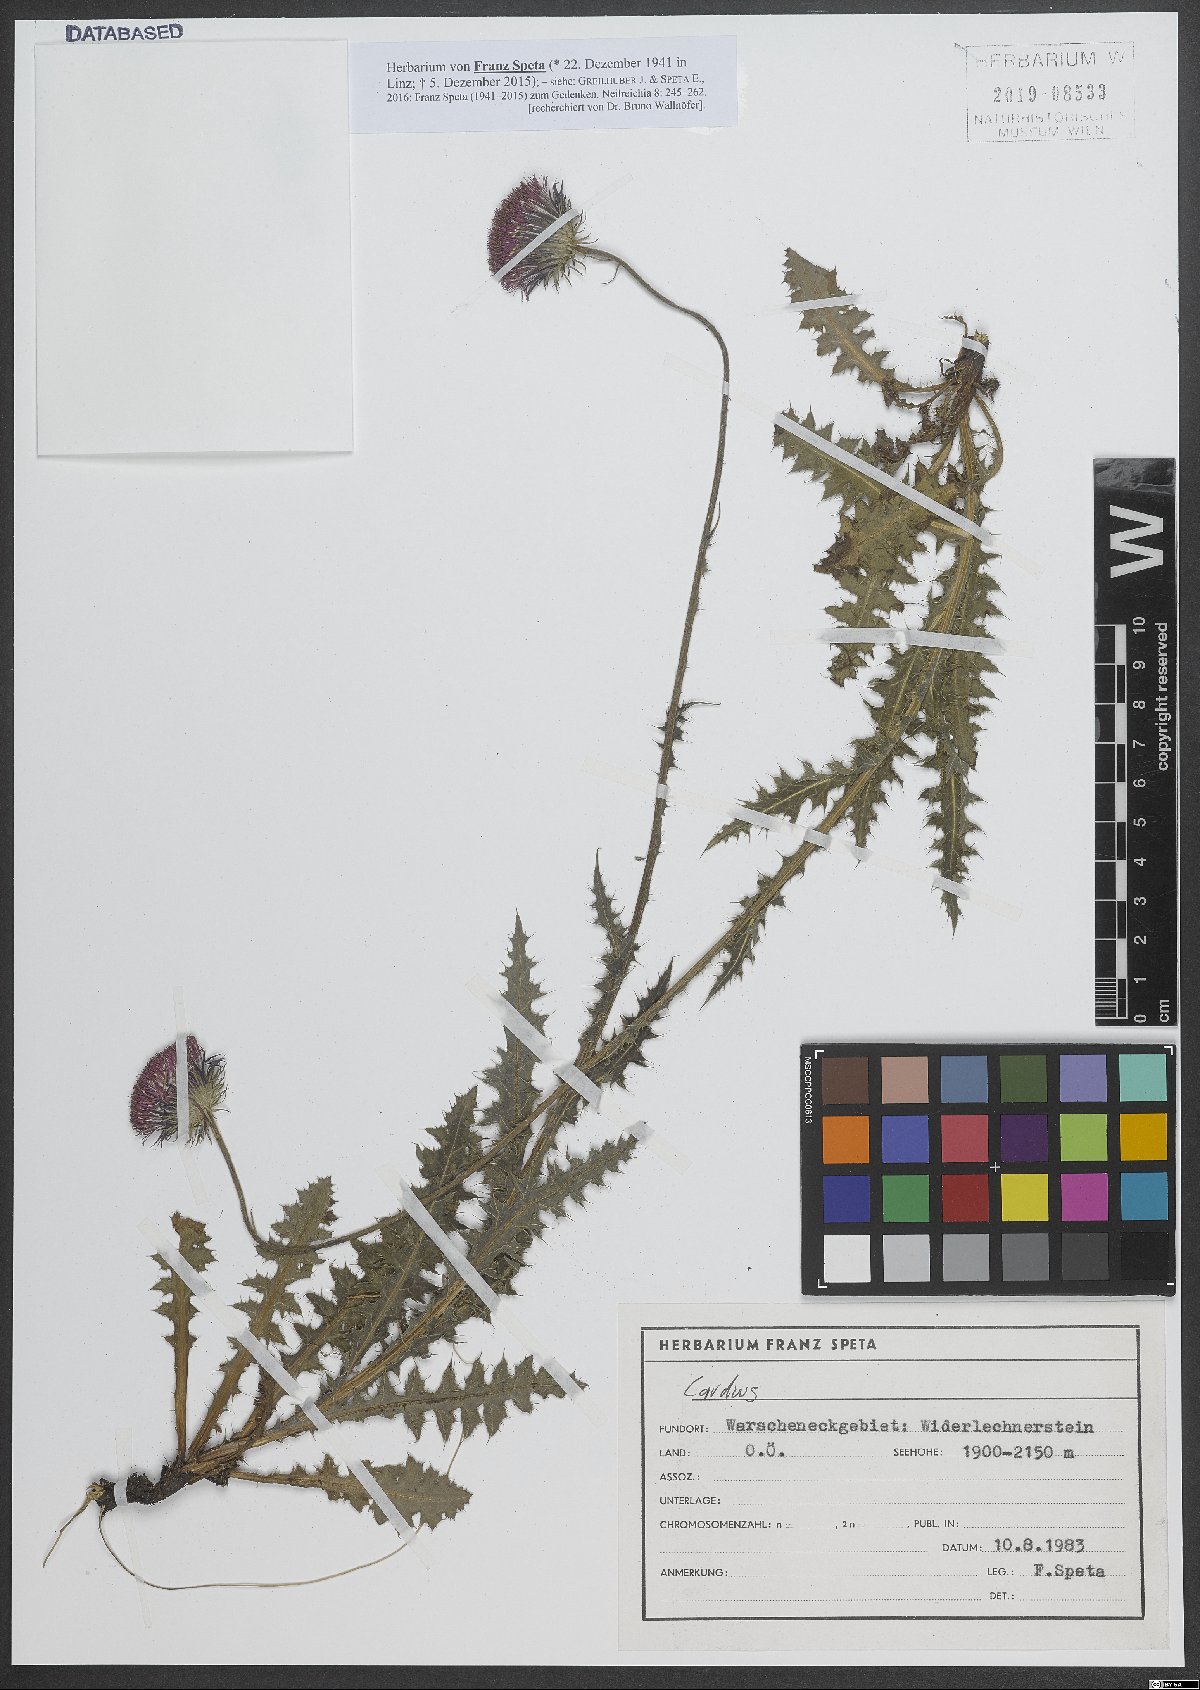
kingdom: Plantae
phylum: Tracheophyta
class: Magnoliopsida
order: Asterales
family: Asteraceae
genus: Carduus
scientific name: Carduus
